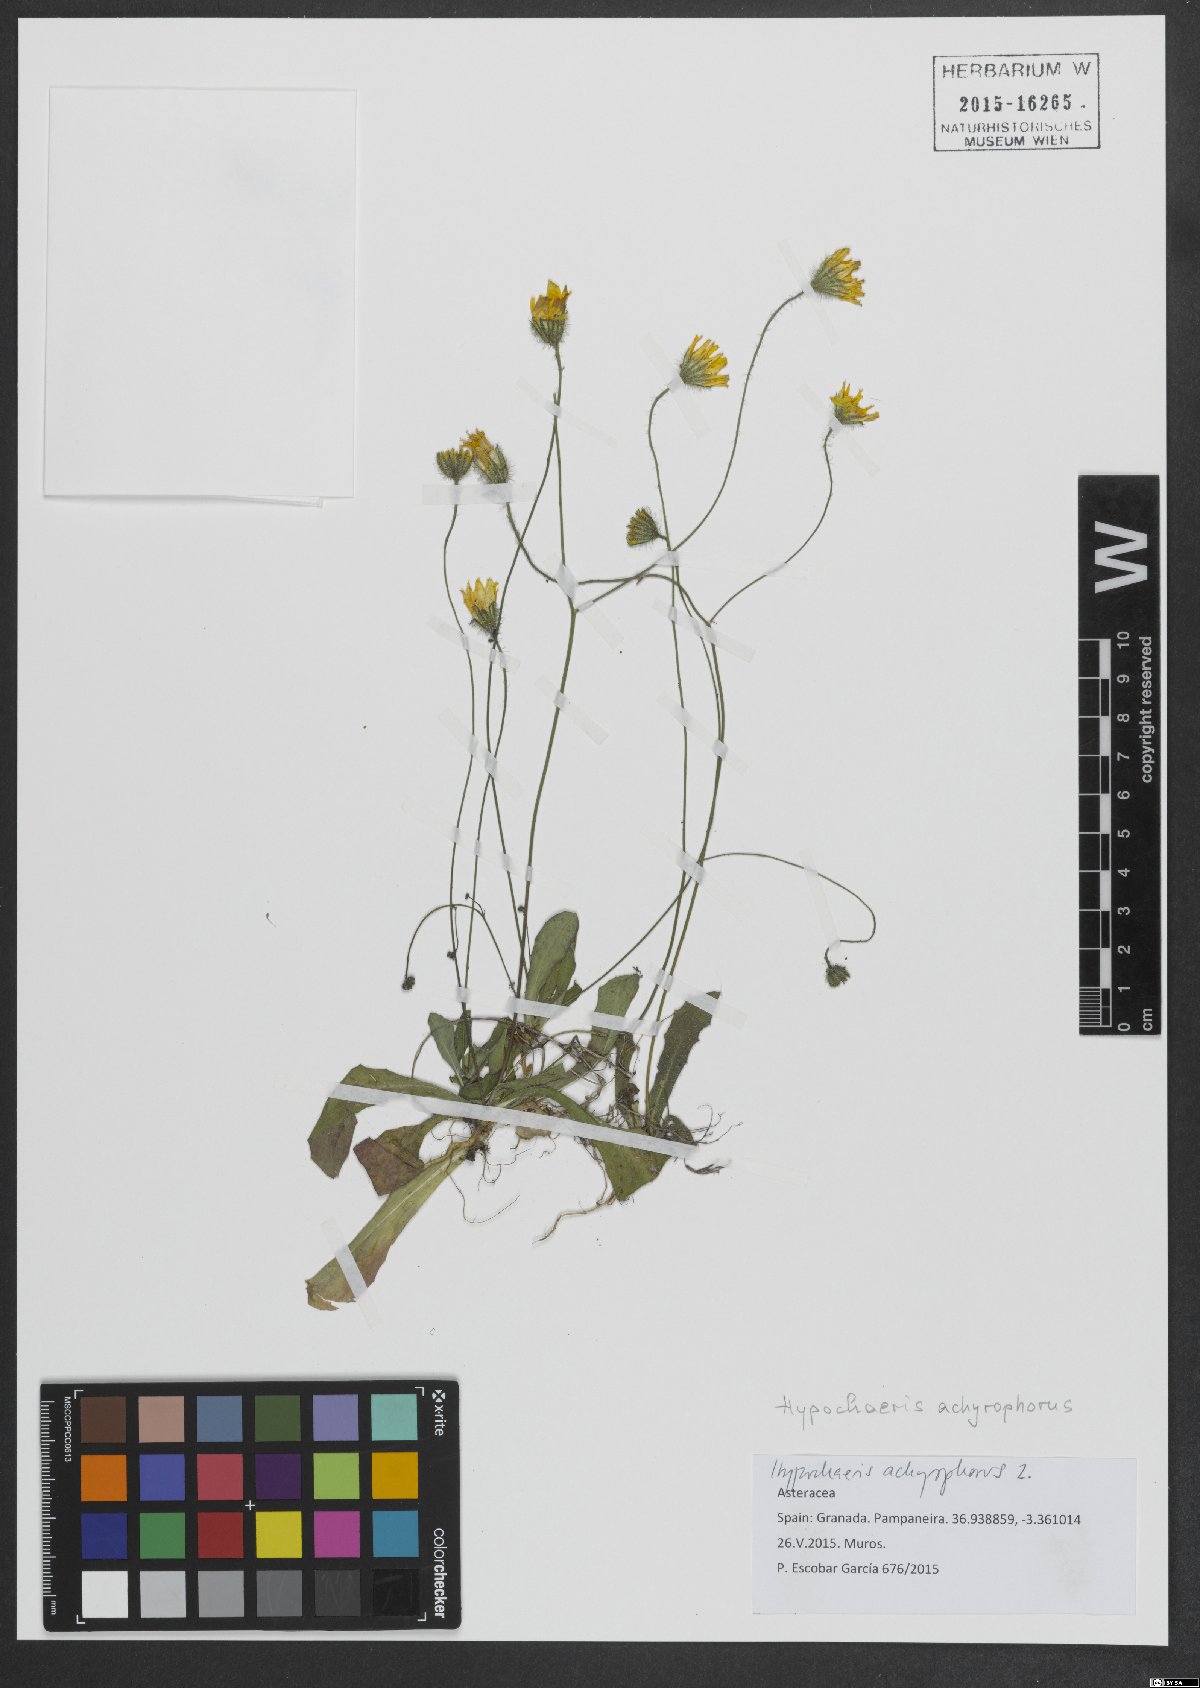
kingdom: Plantae
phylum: Tracheophyta
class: Magnoliopsida
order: Asterales
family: Asteraceae
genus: Achyrophorus
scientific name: Achyrophorus valdesii
